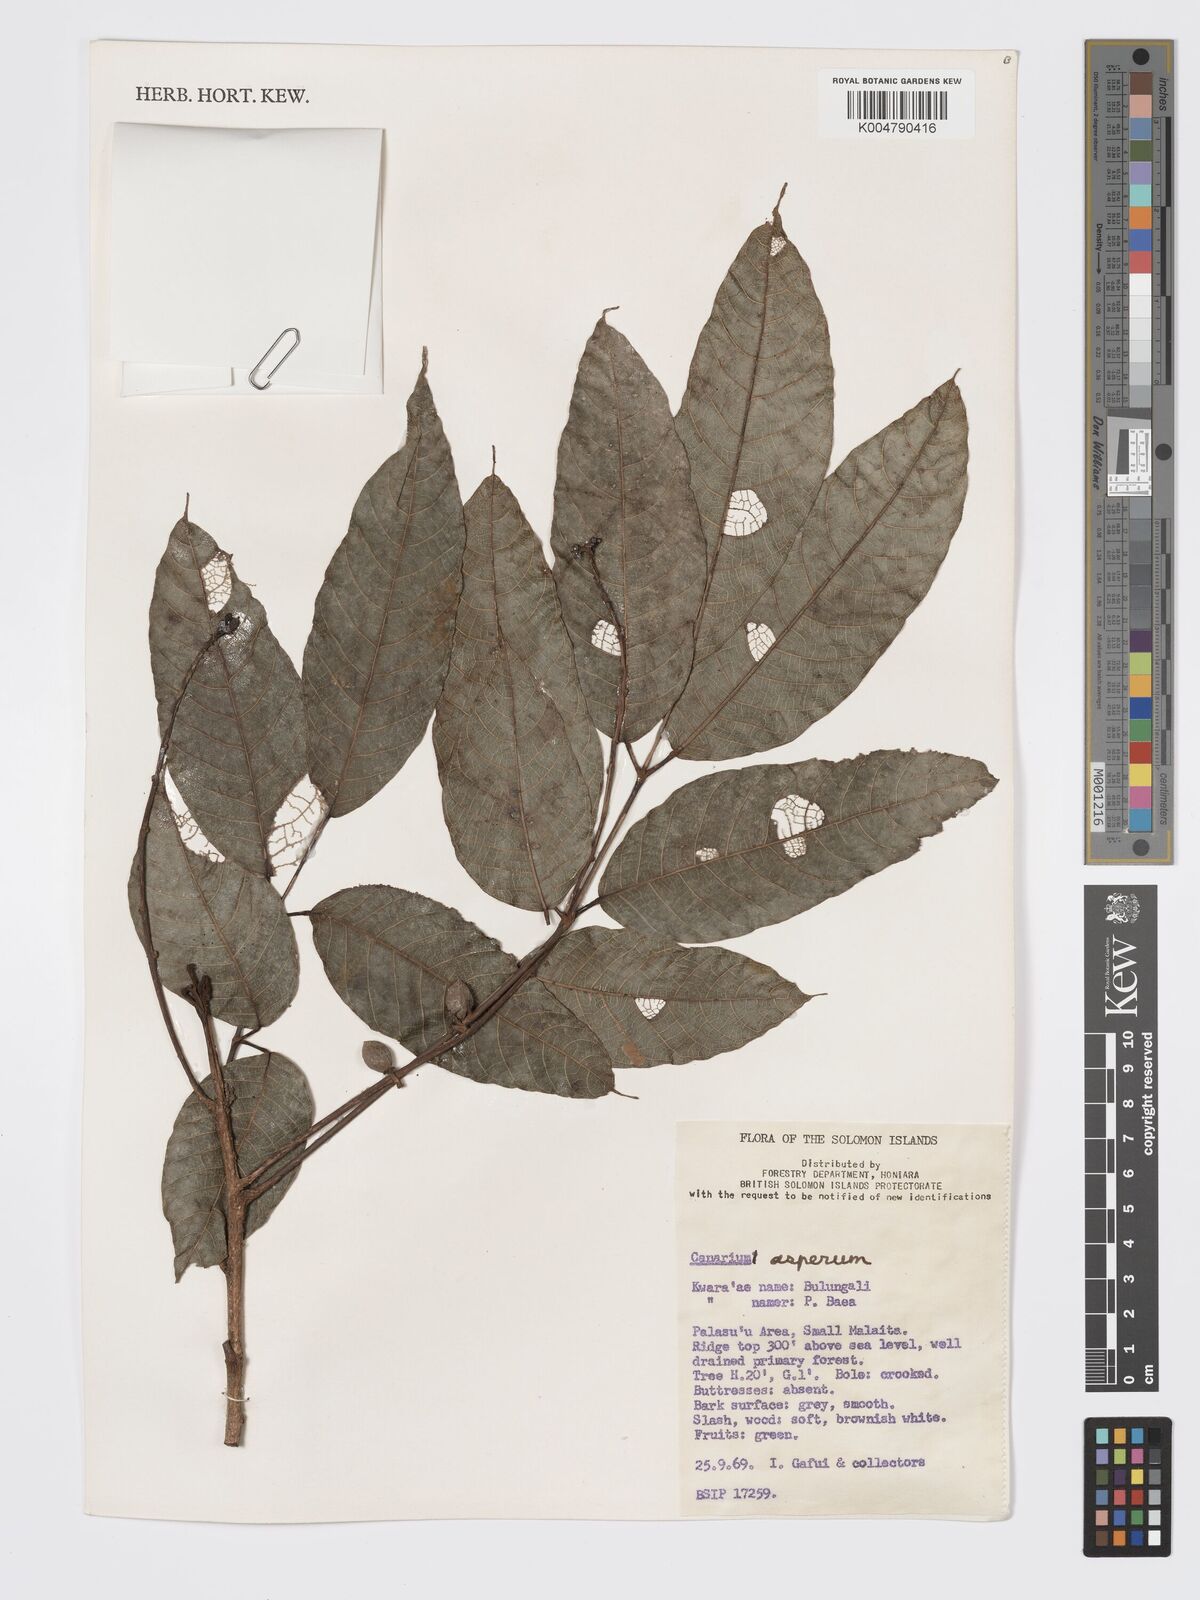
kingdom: Plantae
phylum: Tracheophyta
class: Magnoliopsida
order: Sapindales
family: Burseraceae
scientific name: Burseraceae
